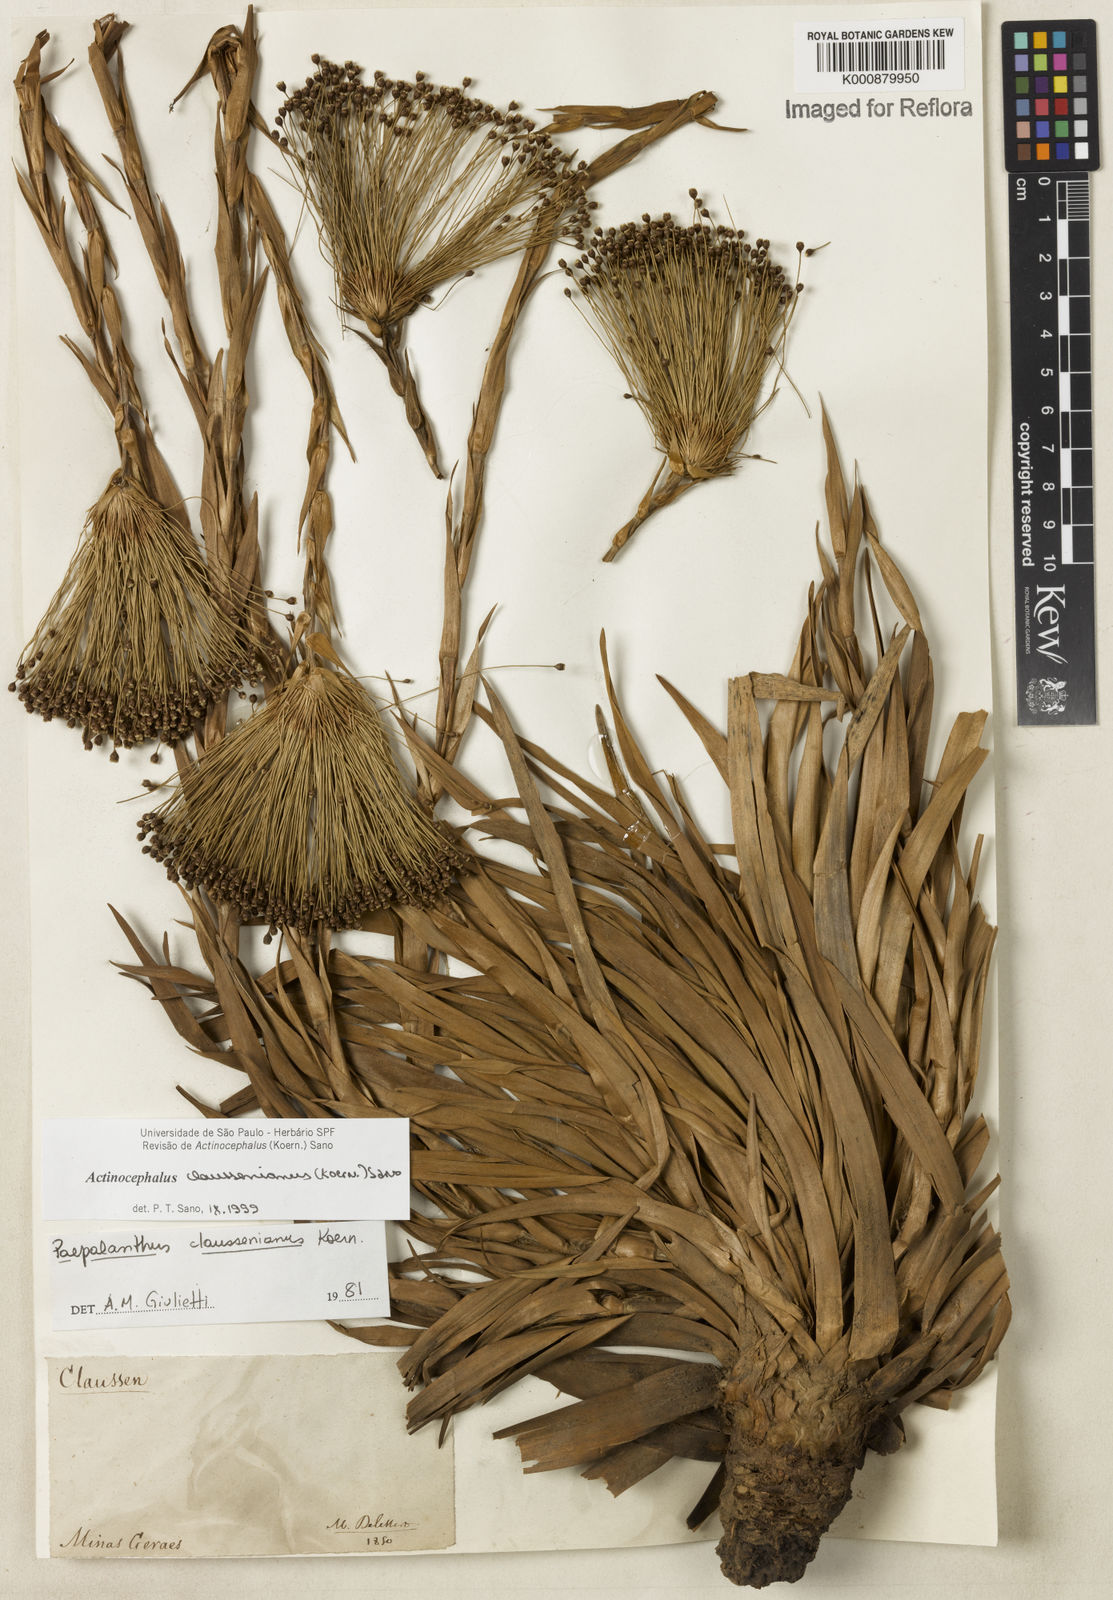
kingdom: Plantae
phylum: Tracheophyta
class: Liliopsida
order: Poales
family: Eriocaulaceae
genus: Paepalanthus
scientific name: Paepalanthus
